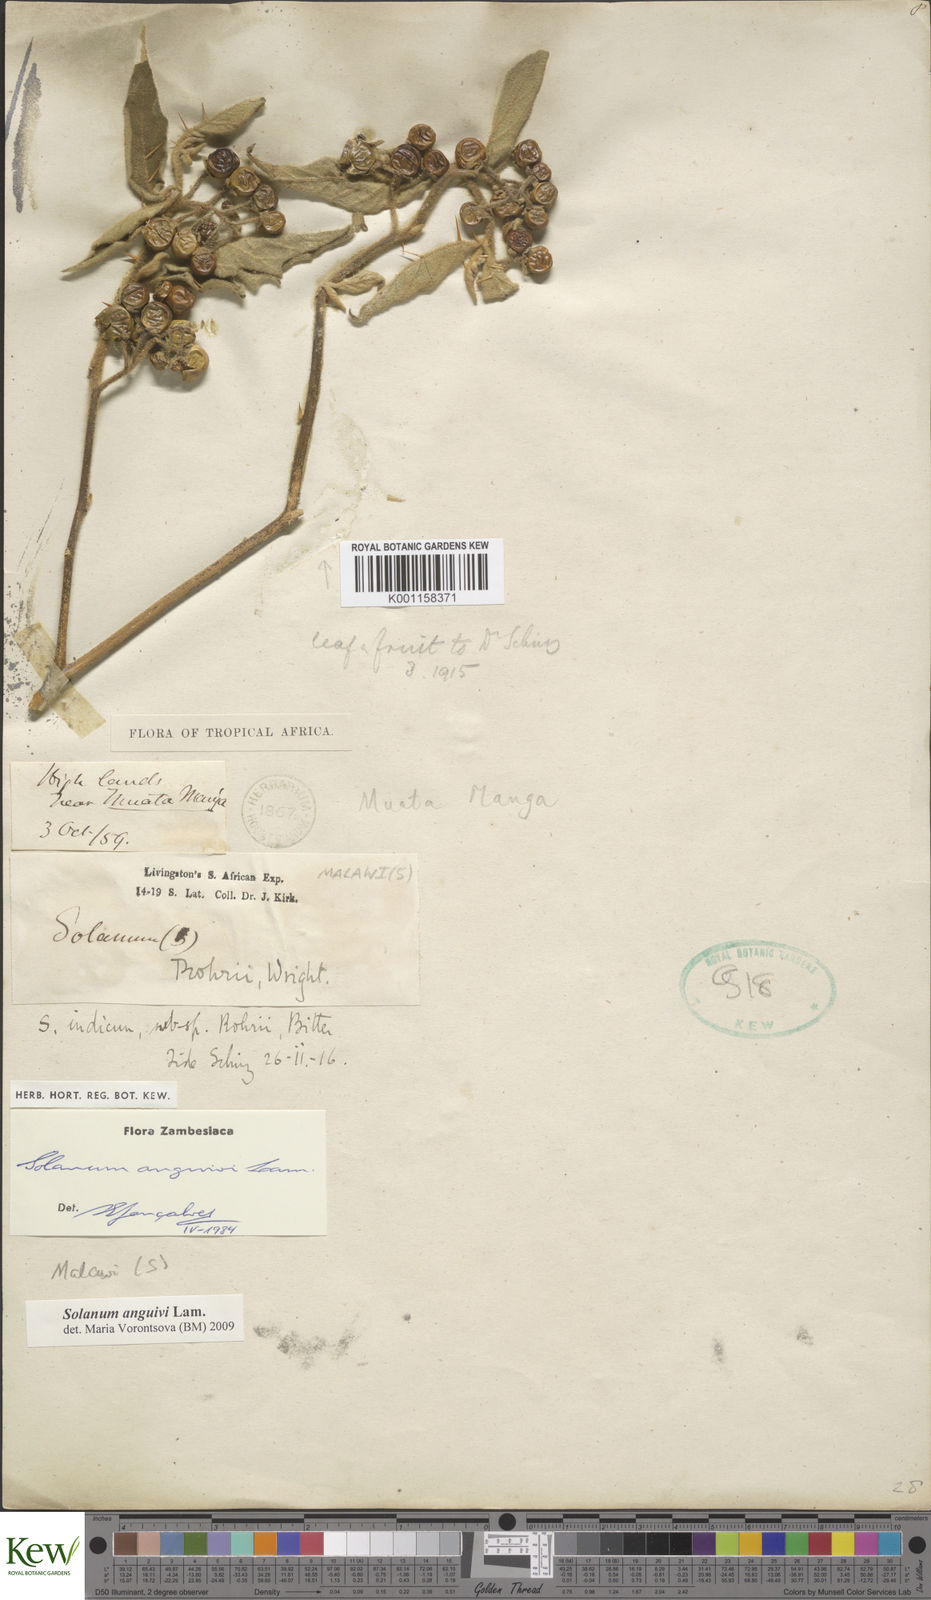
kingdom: Plantae
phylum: Tracheophyta
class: Magnoliopsida
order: Solanales
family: Solanaceae
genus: Solanum
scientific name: Solanum anguivi
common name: Forest bitterberry
